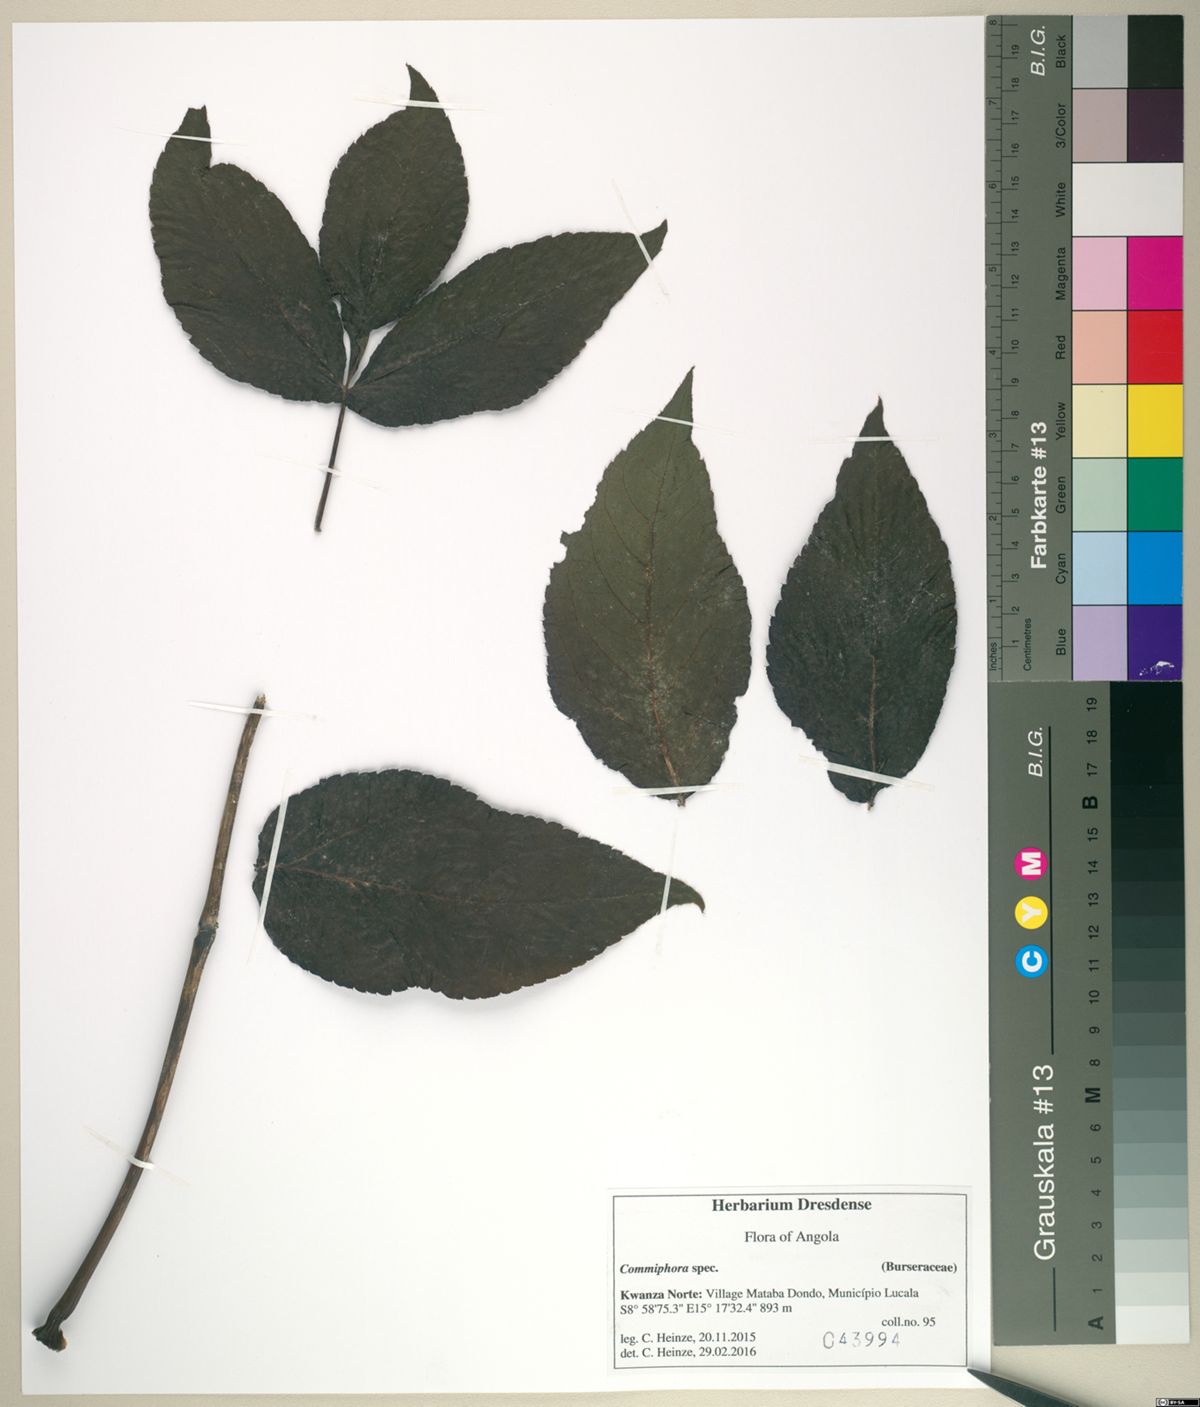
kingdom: Plantae
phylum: Tracheophyta
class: Magnoliopsida
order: Sapindales
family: Burseraceae
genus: Commiphora
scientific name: Commiphora
